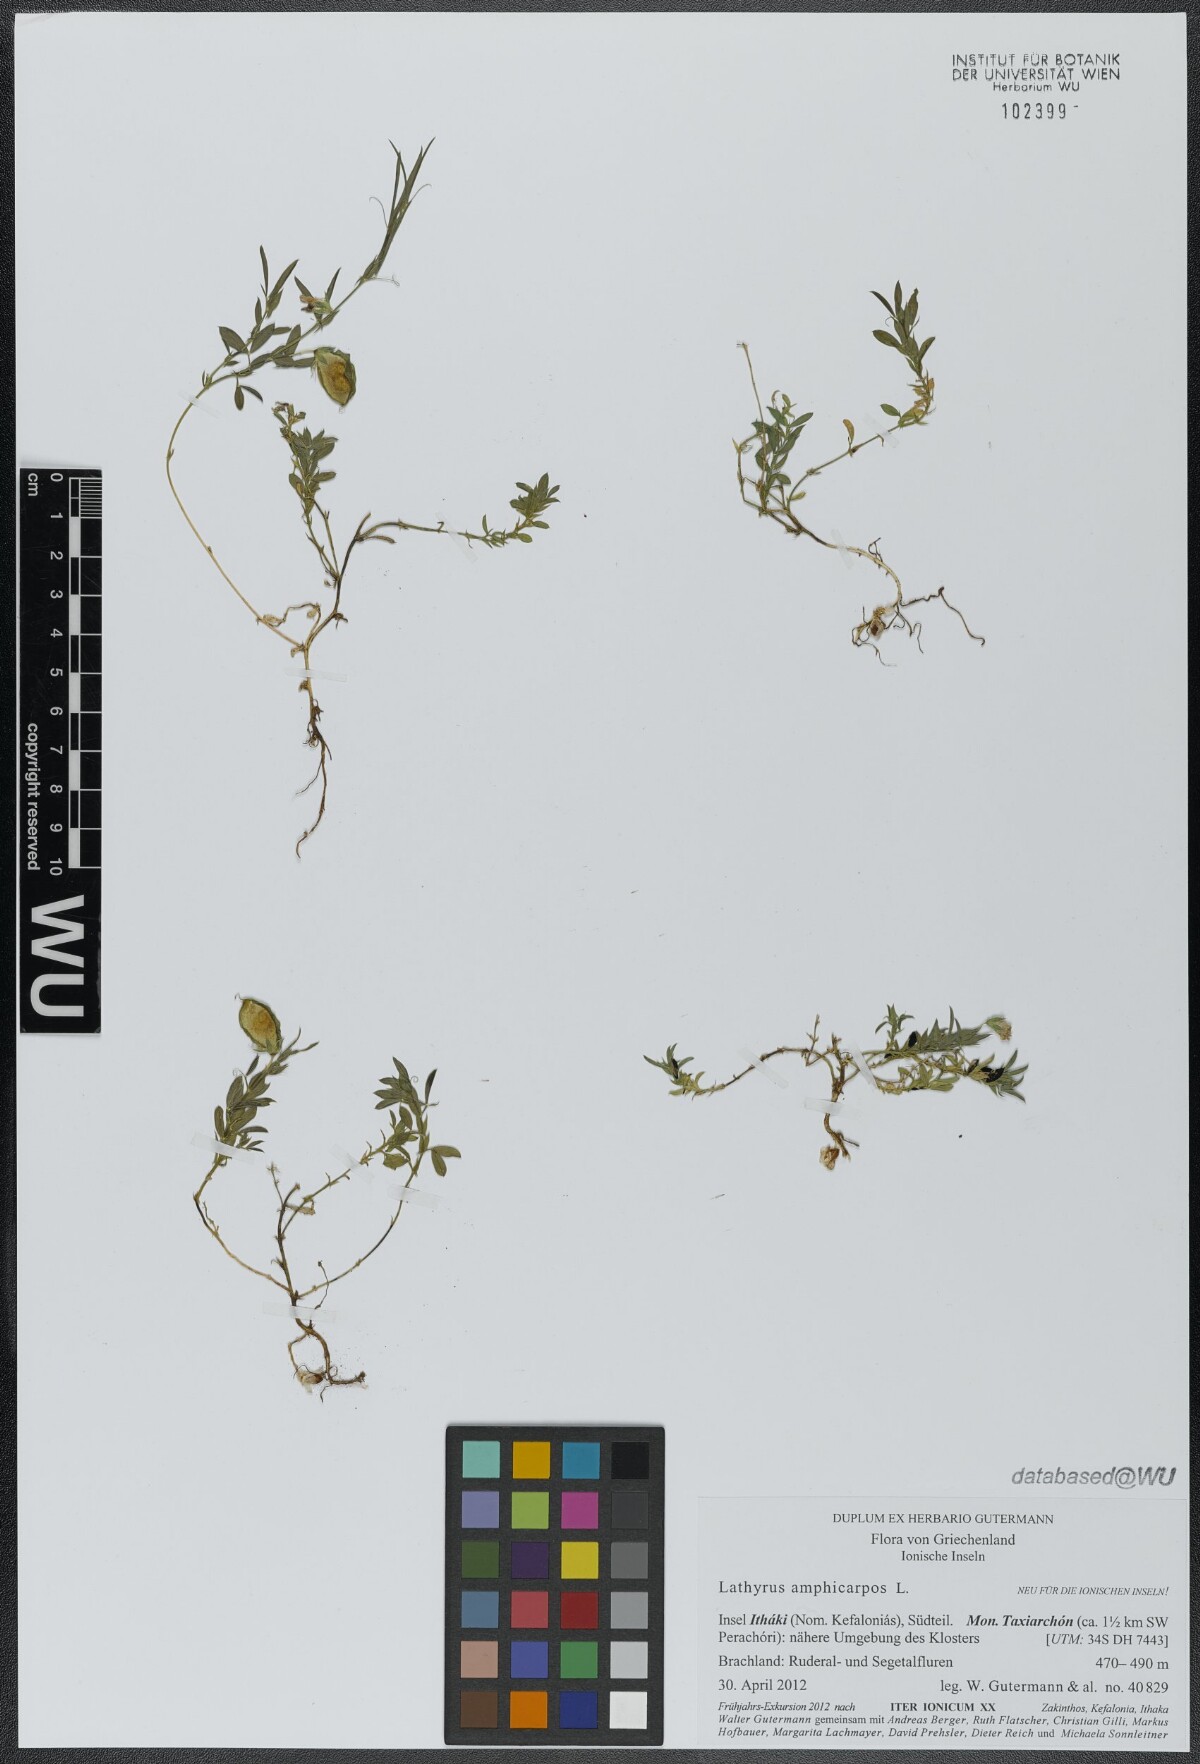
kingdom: Plantae
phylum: Tracheophyta
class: Magnoliopsida
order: Fabales
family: Fabaceae
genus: Lathyrus
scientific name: Lathyrus amphicarpos
